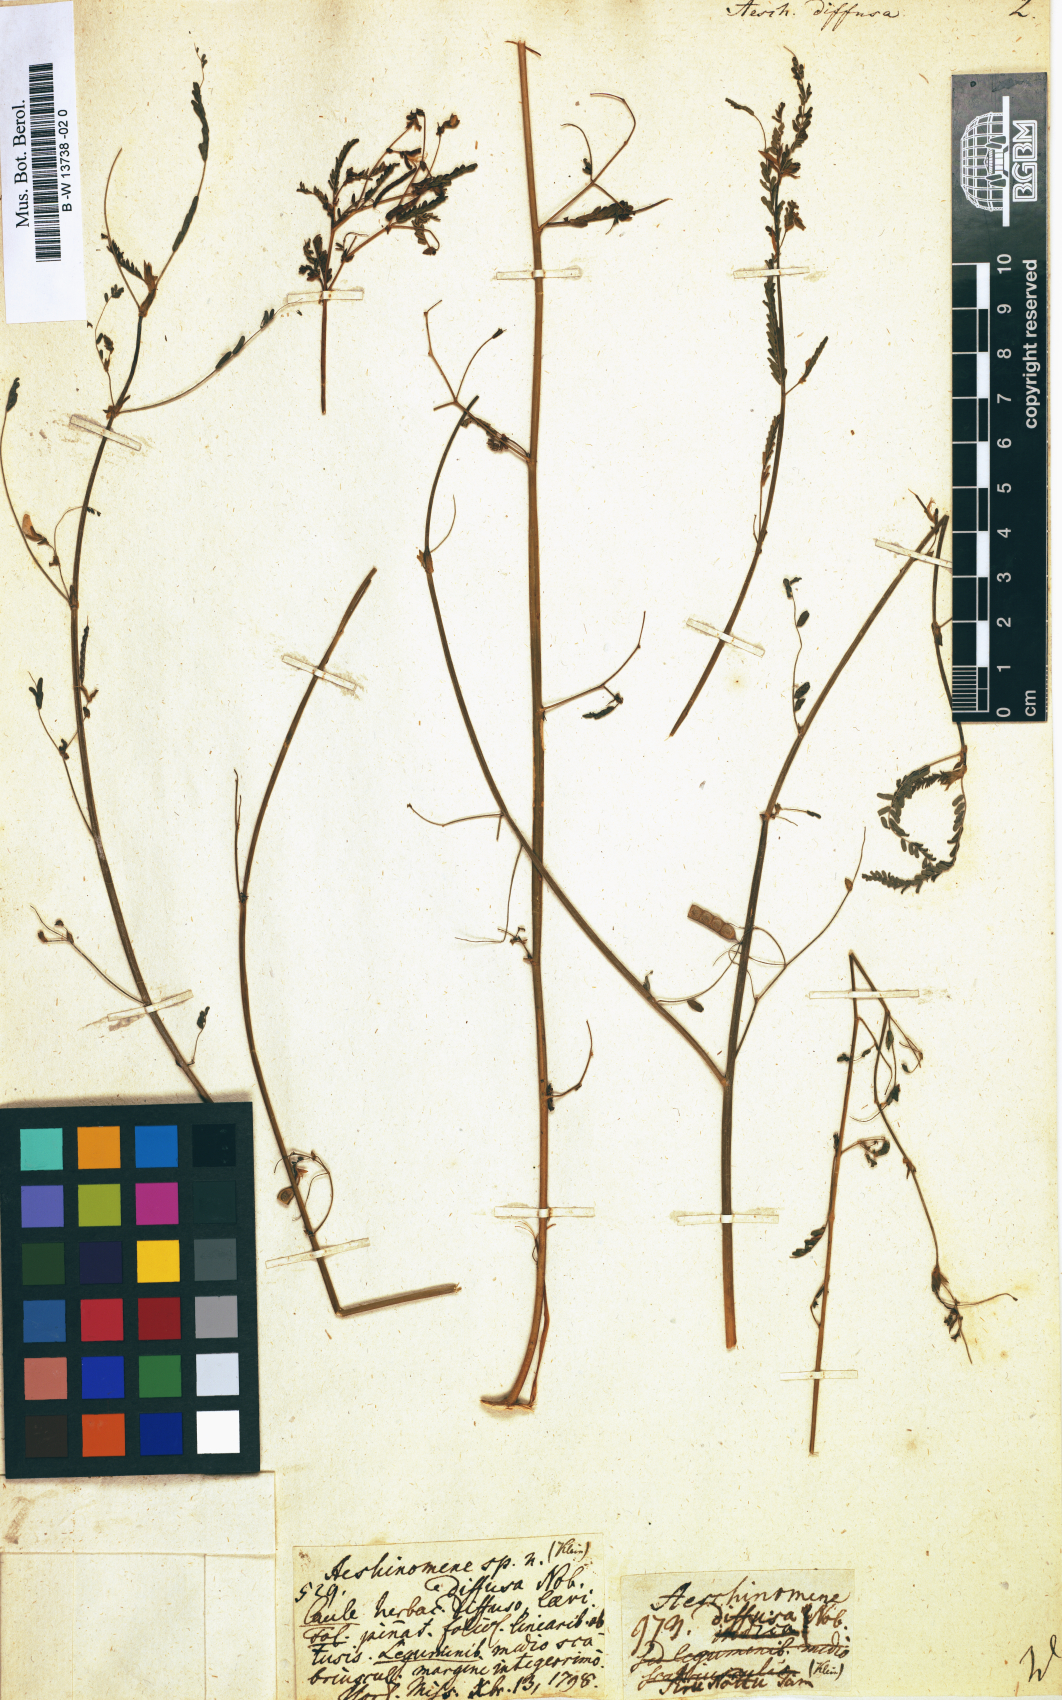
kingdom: Plantae
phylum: Tracheophyta
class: Magnoliopsida
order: Fabales
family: Fabaceae
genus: Aeschynomene
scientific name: Aeschynomene indica
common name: Indian jointvetch
